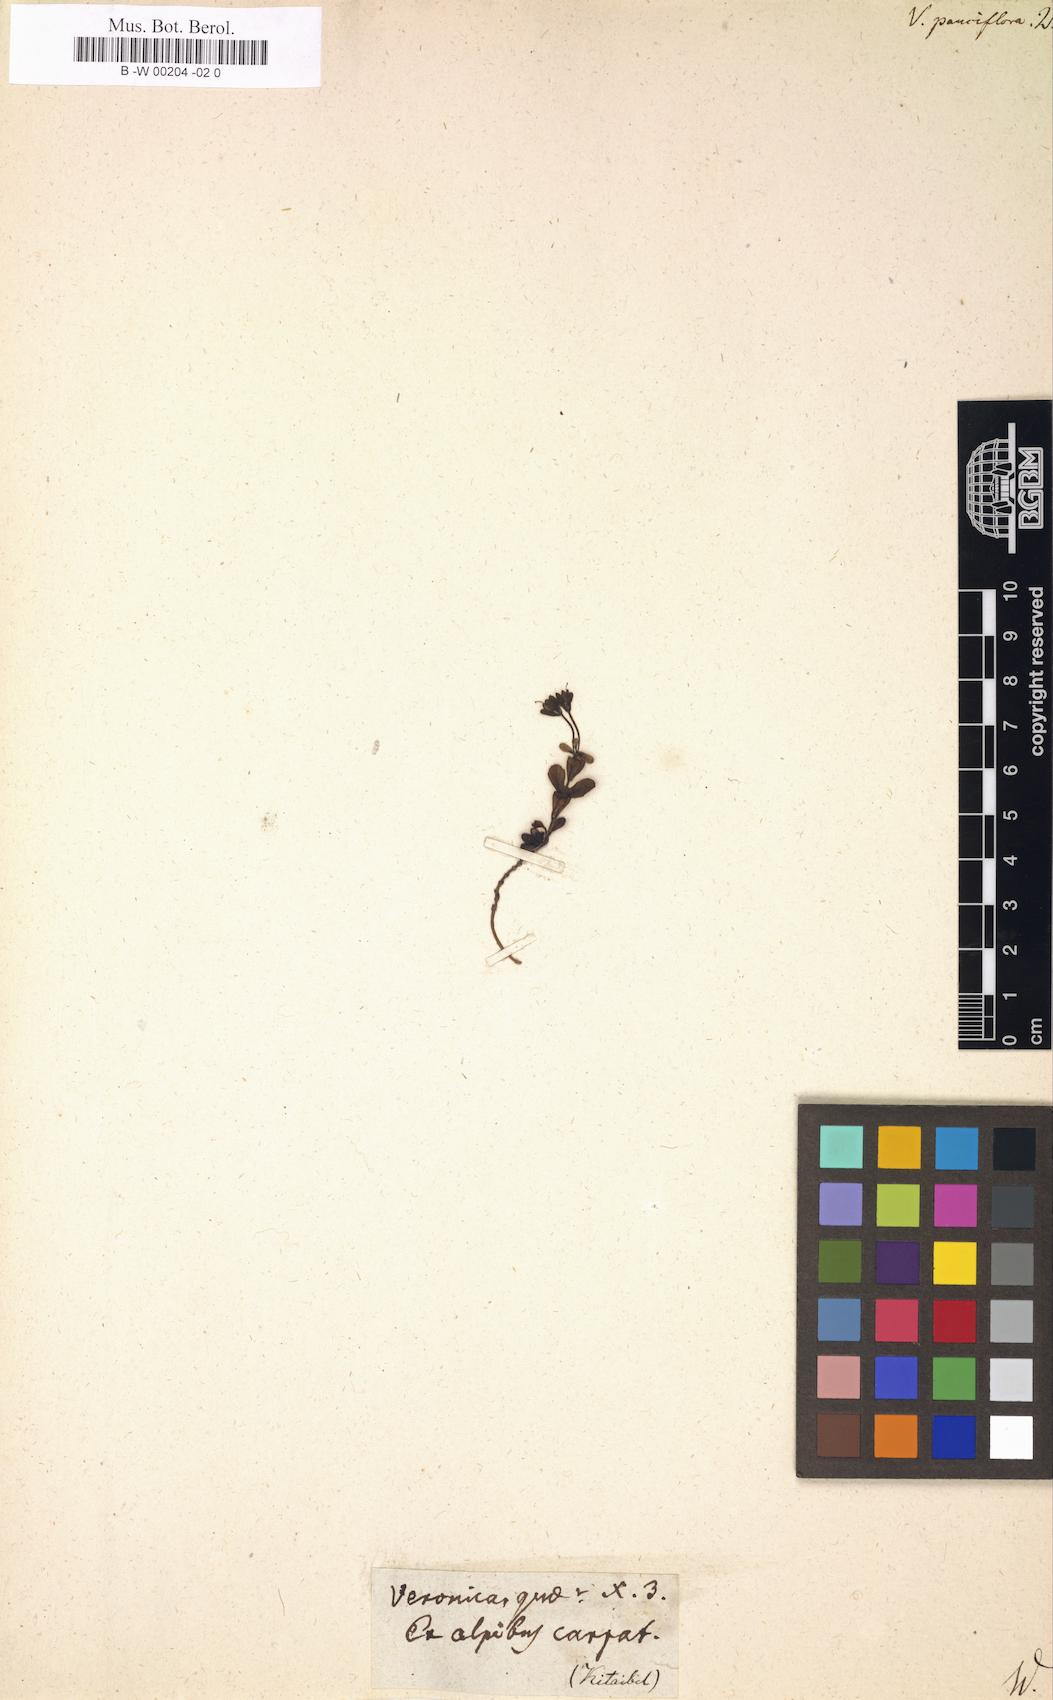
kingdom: Plantae
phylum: Tracheophyta
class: Magnoliopsida
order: Lamiales
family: Plantaginaceae
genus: Veronica
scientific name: Veronica
